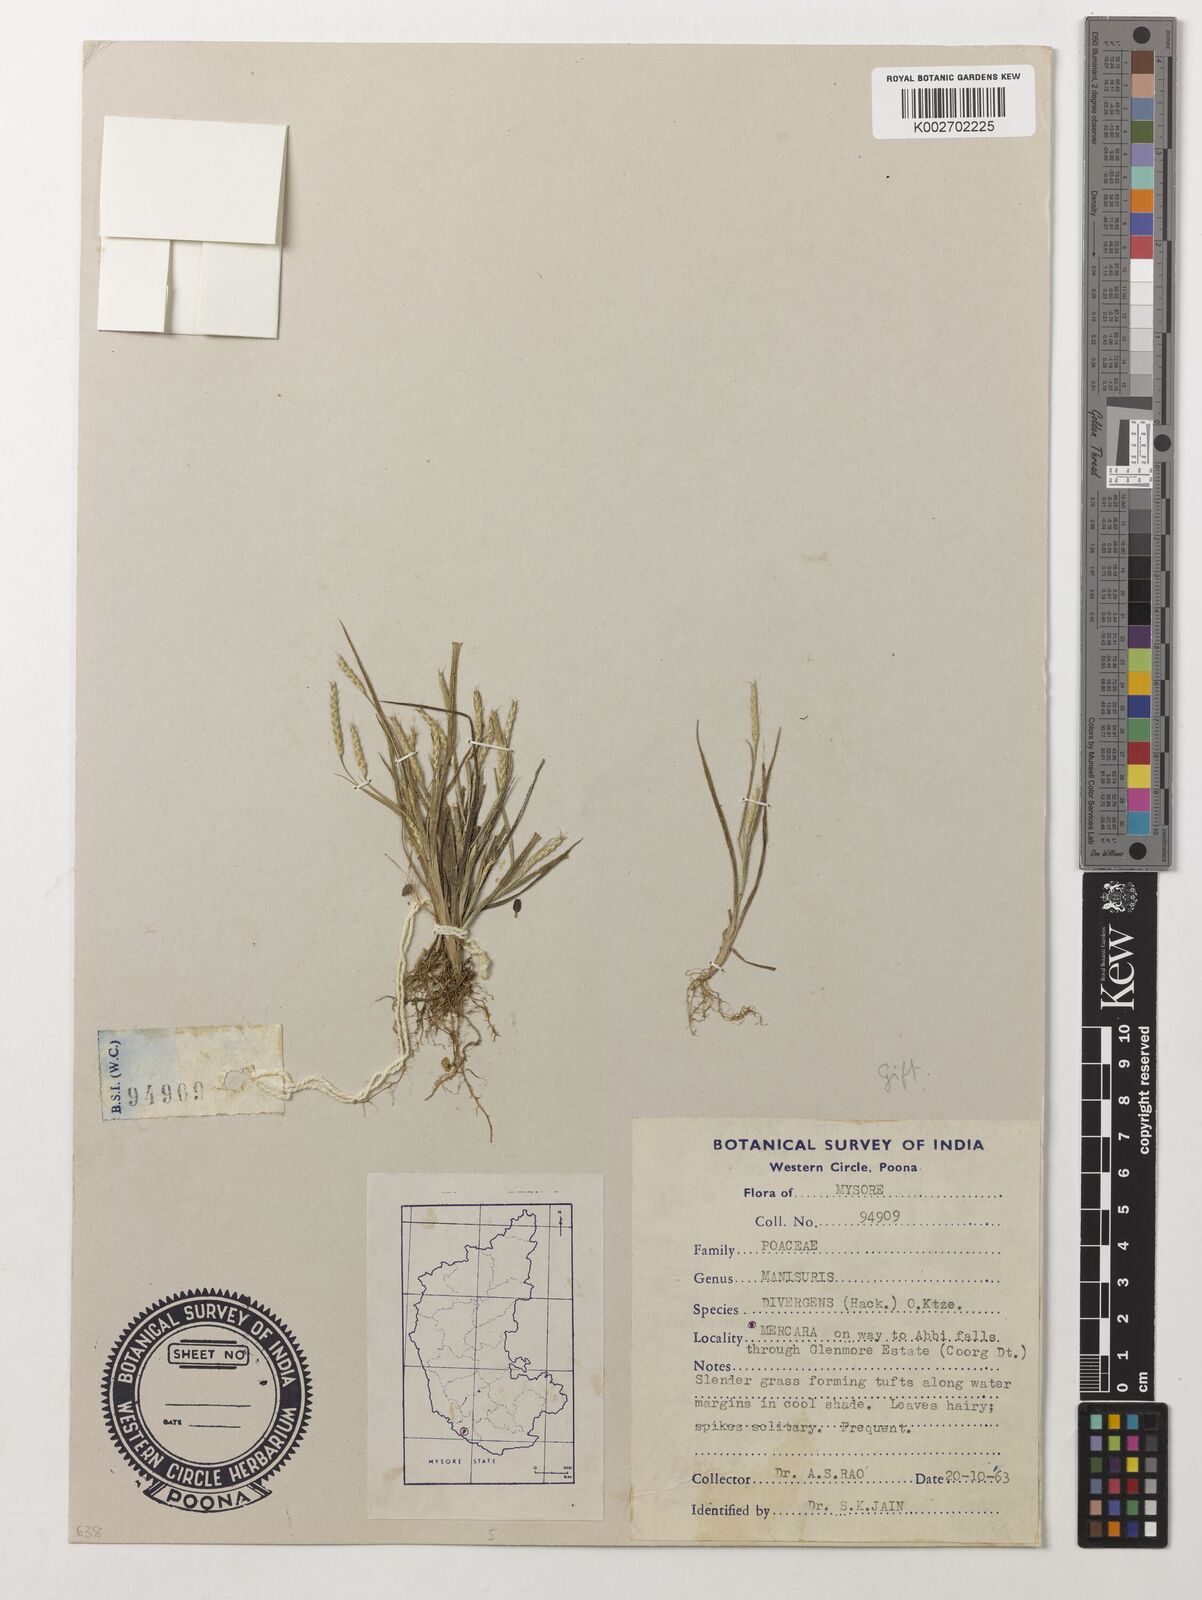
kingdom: Plantae
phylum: Tracheophyta
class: Liliopsida
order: Poales
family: Poaceae
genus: Glyphochloa
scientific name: Glyphochloa divergens
